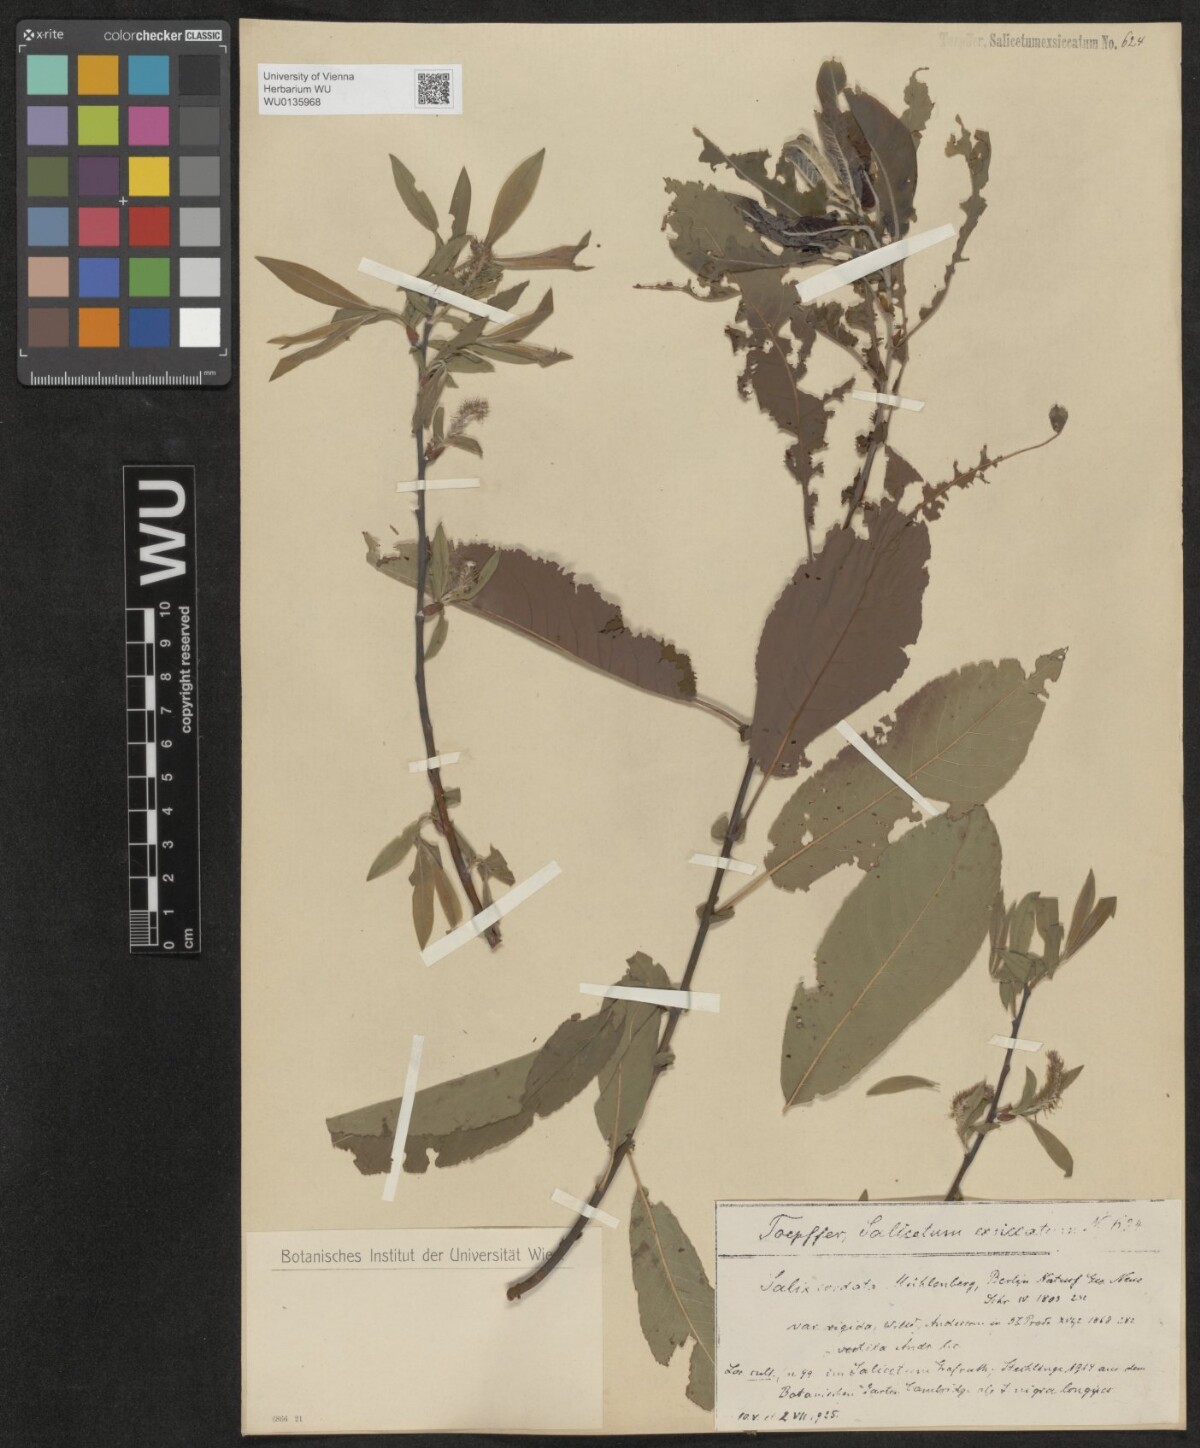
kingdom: Plantae
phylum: Tracheophyta
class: Magnoliopsida
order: Malpighiales
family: Salicaceae
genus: Salix
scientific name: Salix cordata
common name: Heart-leaf willow
